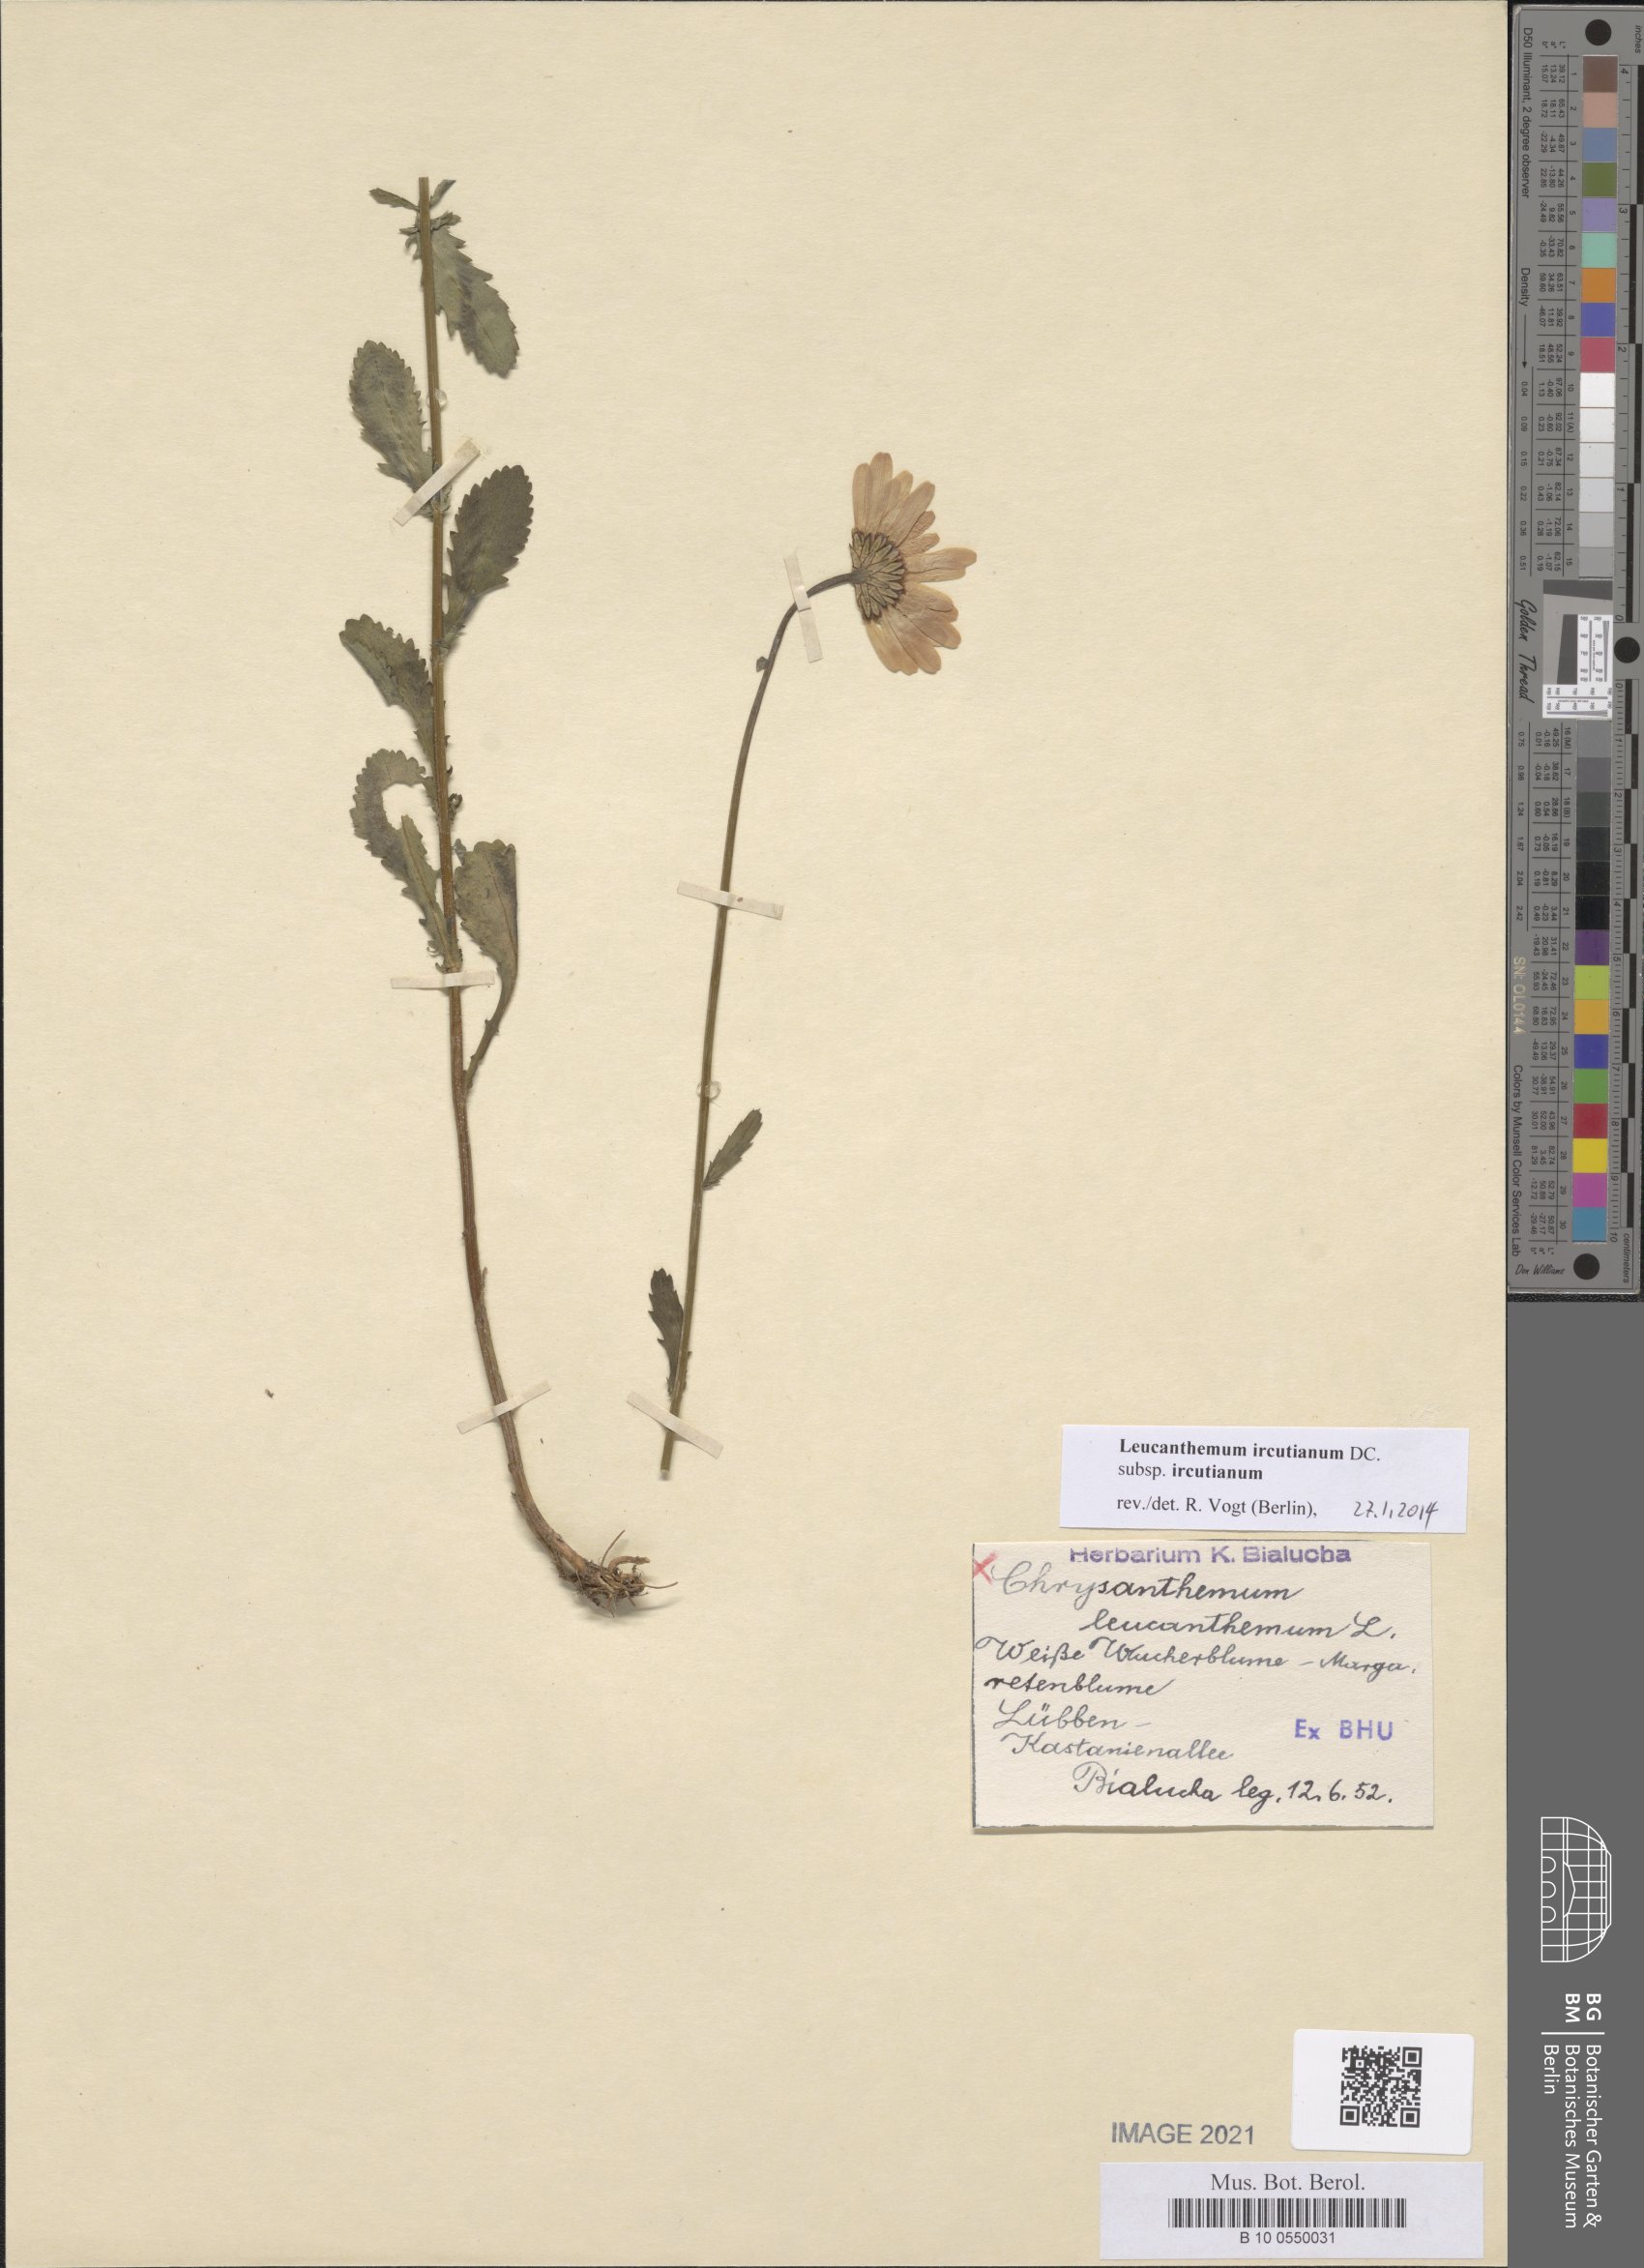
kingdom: Plantae
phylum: Tracheophyta
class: Magnoliopsida
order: Asterales
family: Asteraceae
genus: Leucanthemum
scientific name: Leucanthemum ircutianum
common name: Daisy
